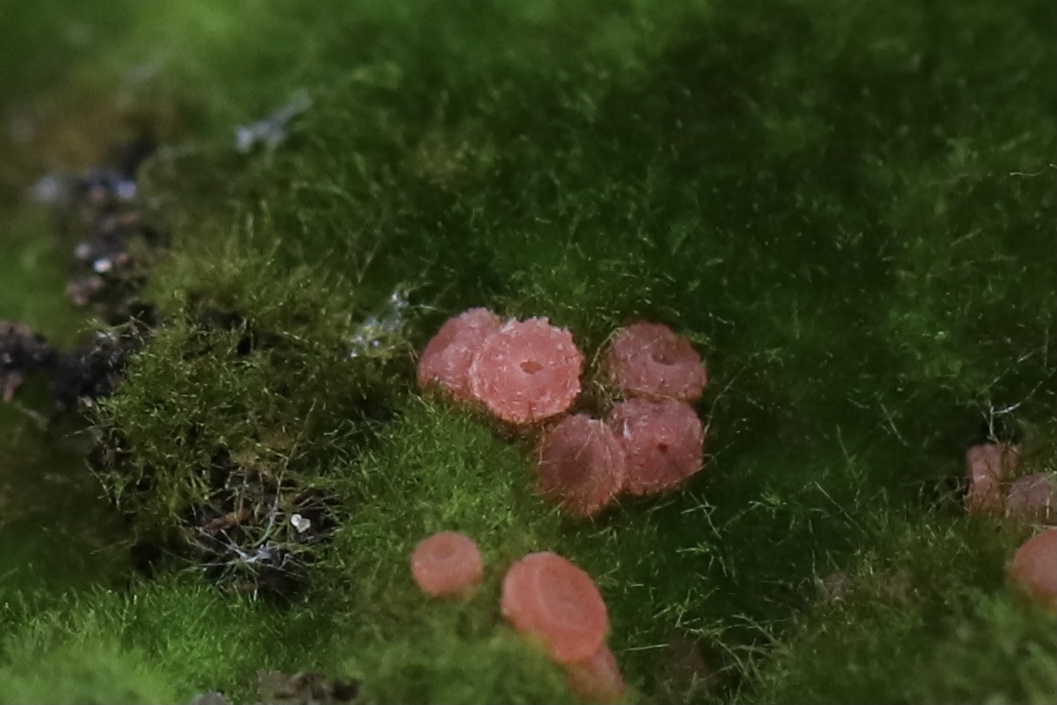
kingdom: Fungi
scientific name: Fungi
